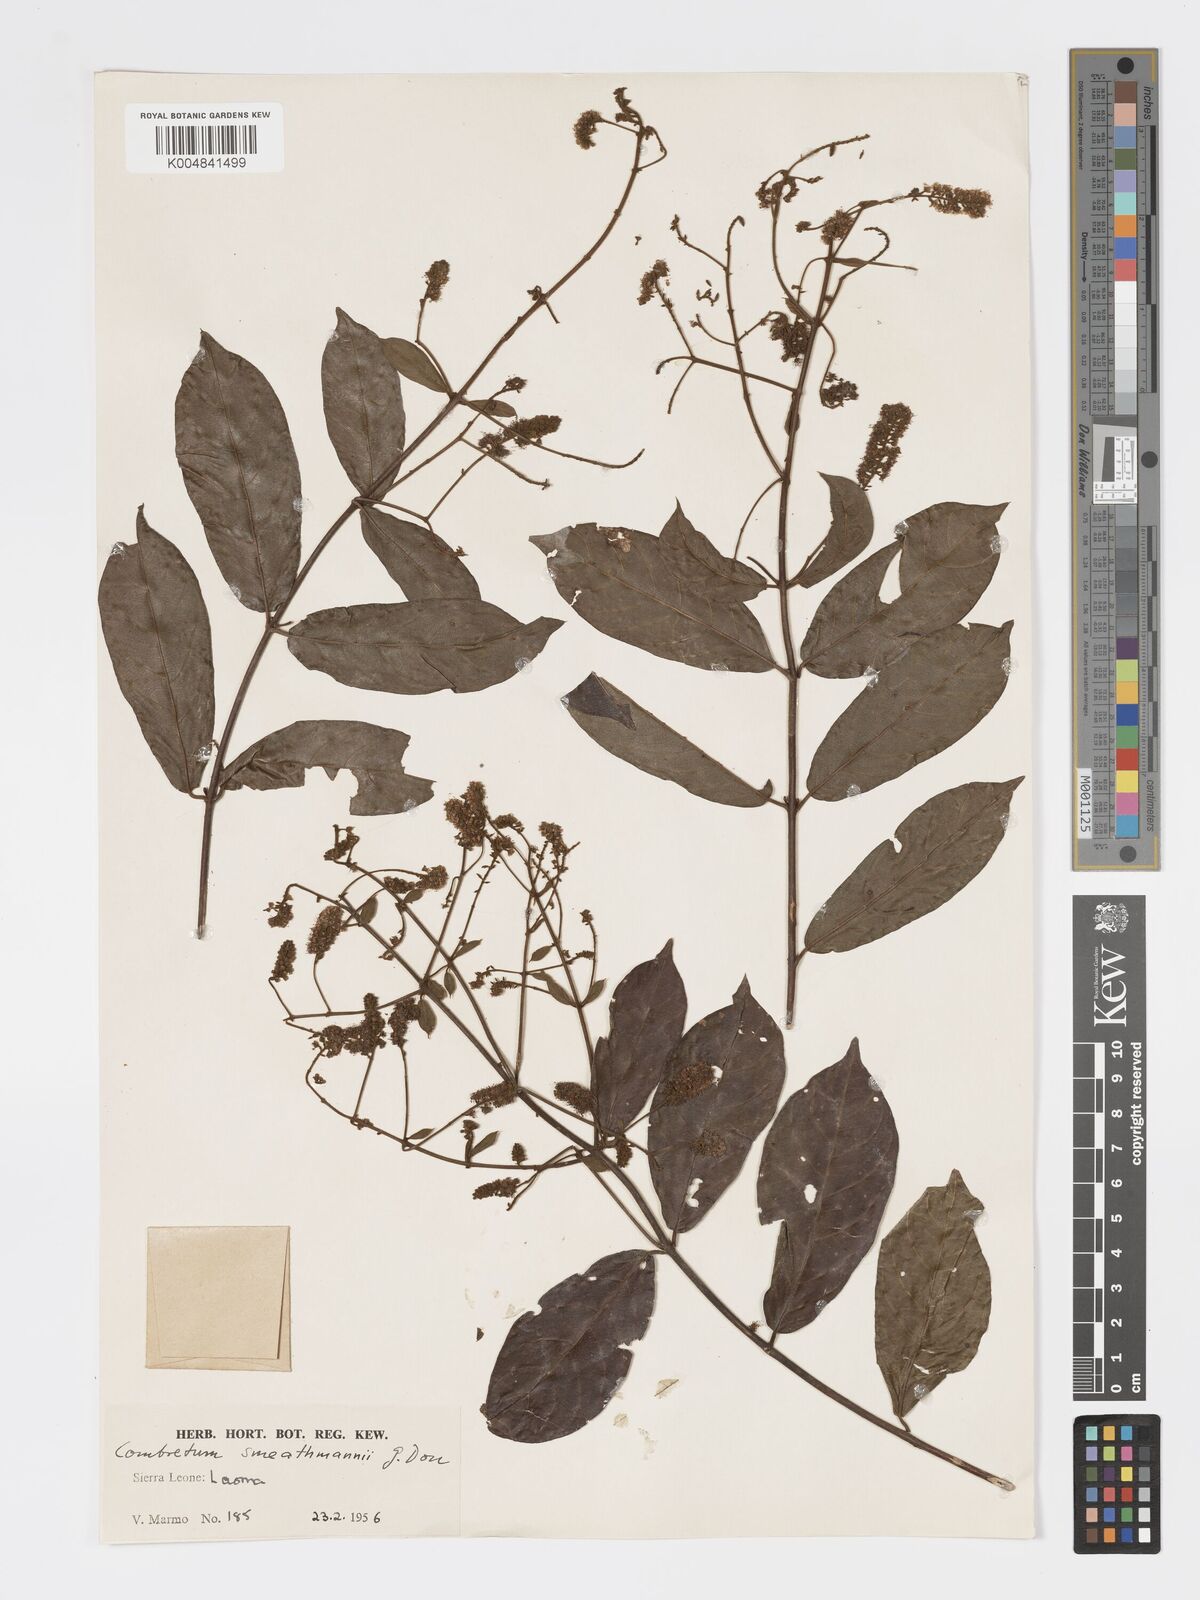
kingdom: Plantae
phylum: Tracheophyta
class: Magnoliopsida
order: Myrtales
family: Combretaceae
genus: Combretum
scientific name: Combretum mucronatum
